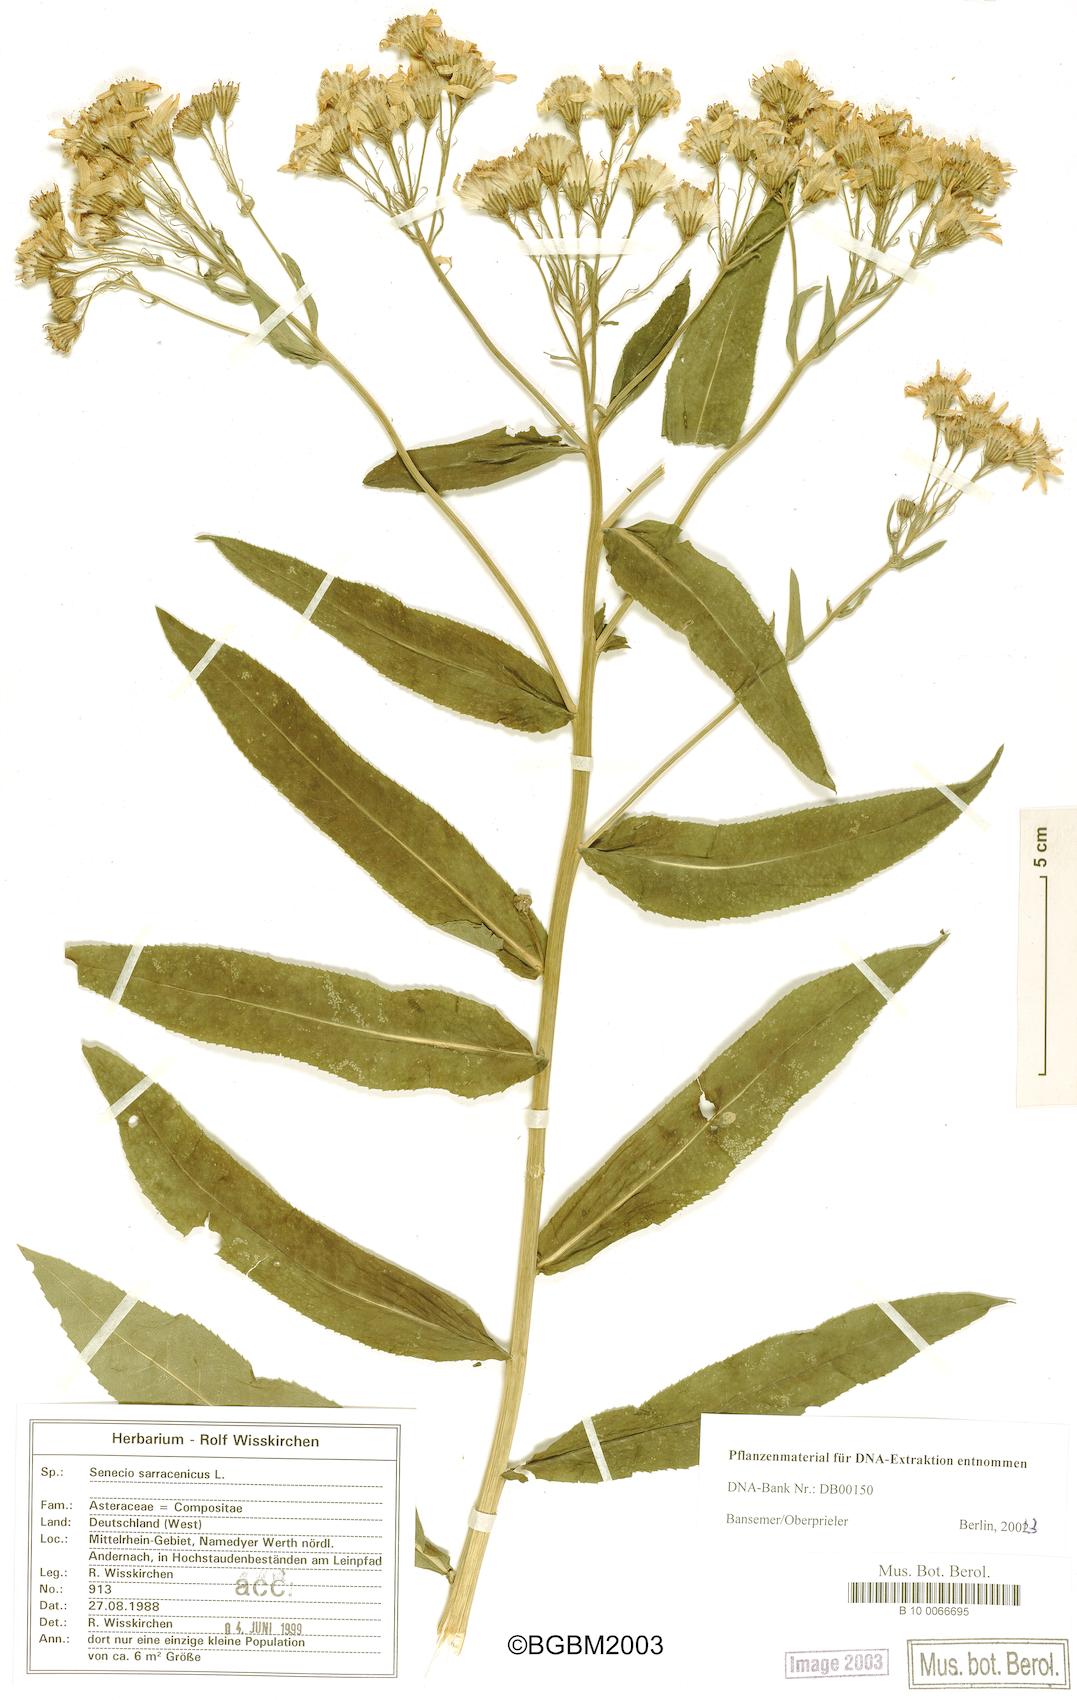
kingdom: Plantae
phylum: Tracheophyta
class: Magnoliopsida
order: Asterales
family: Asteraceae
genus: Senecio
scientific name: Senecio sarracenicus
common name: Broad-leaved ragwort
